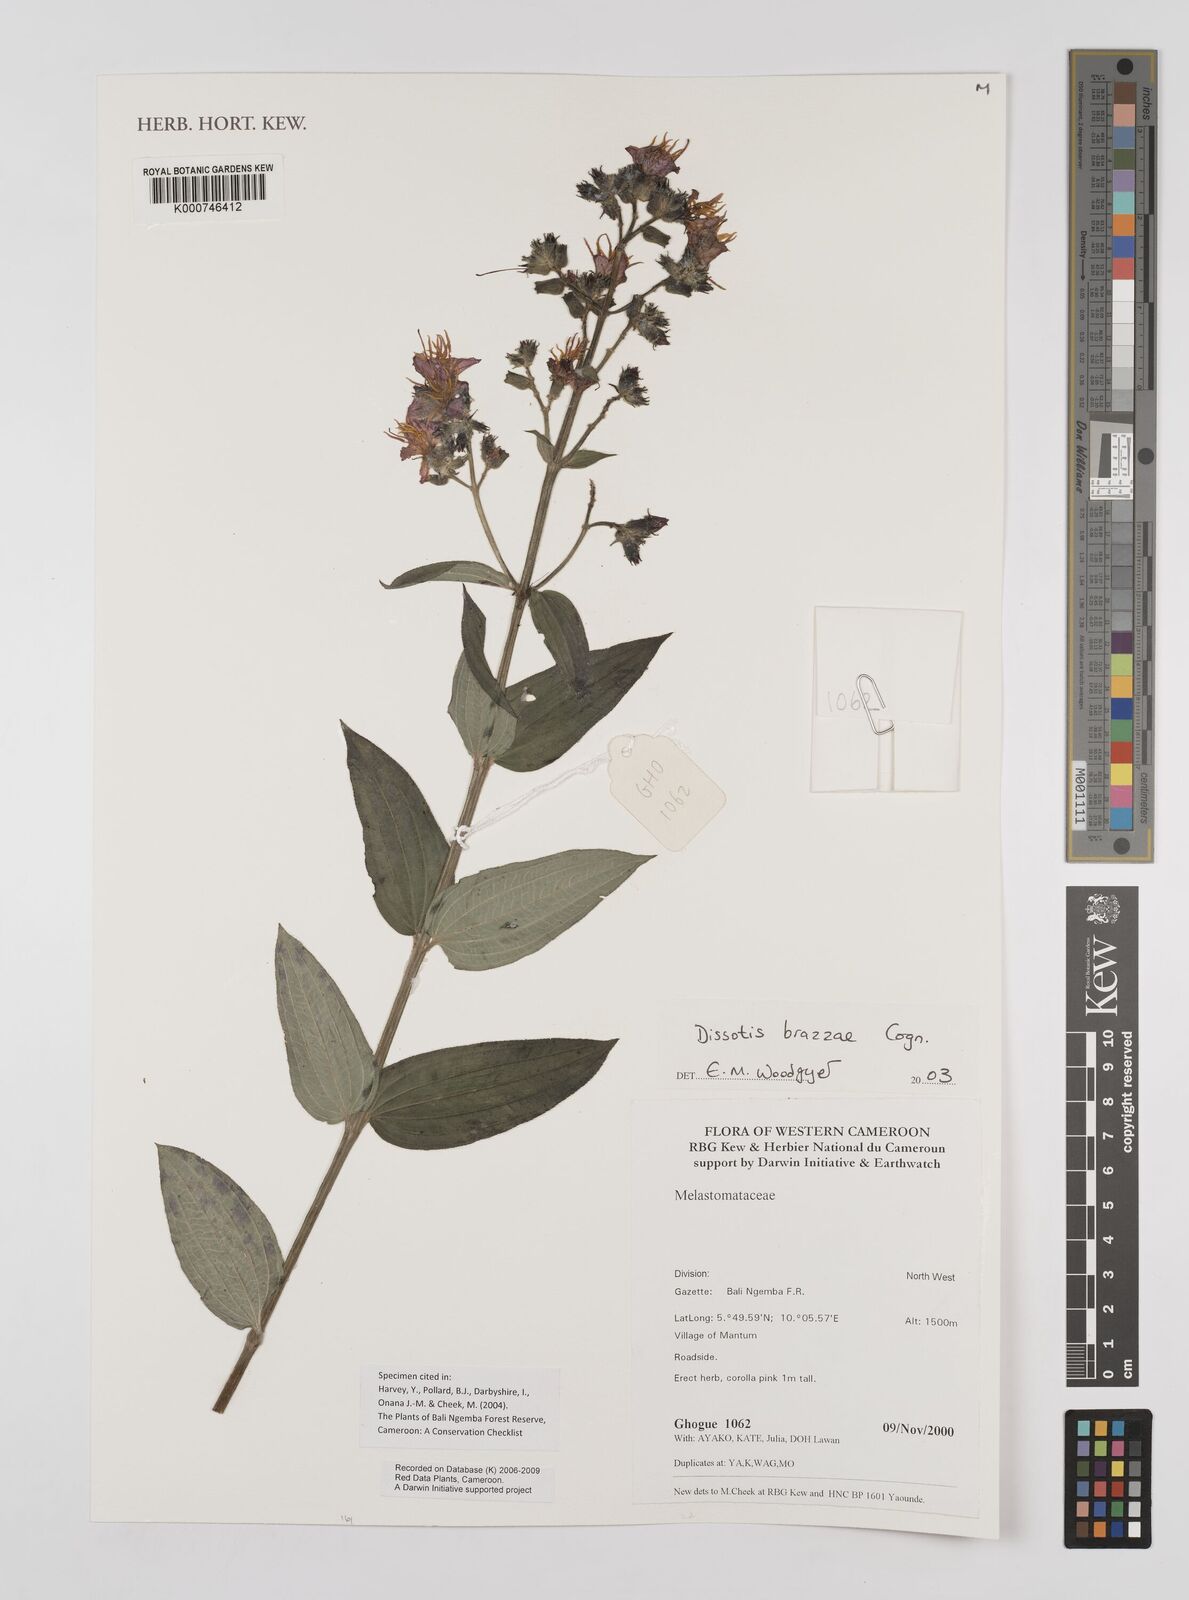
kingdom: Plantae
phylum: Tracheophyta
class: Magnoliopsida
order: Myrtales
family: Melastomataceae
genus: Dupineta
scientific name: Dupineta brazzae
